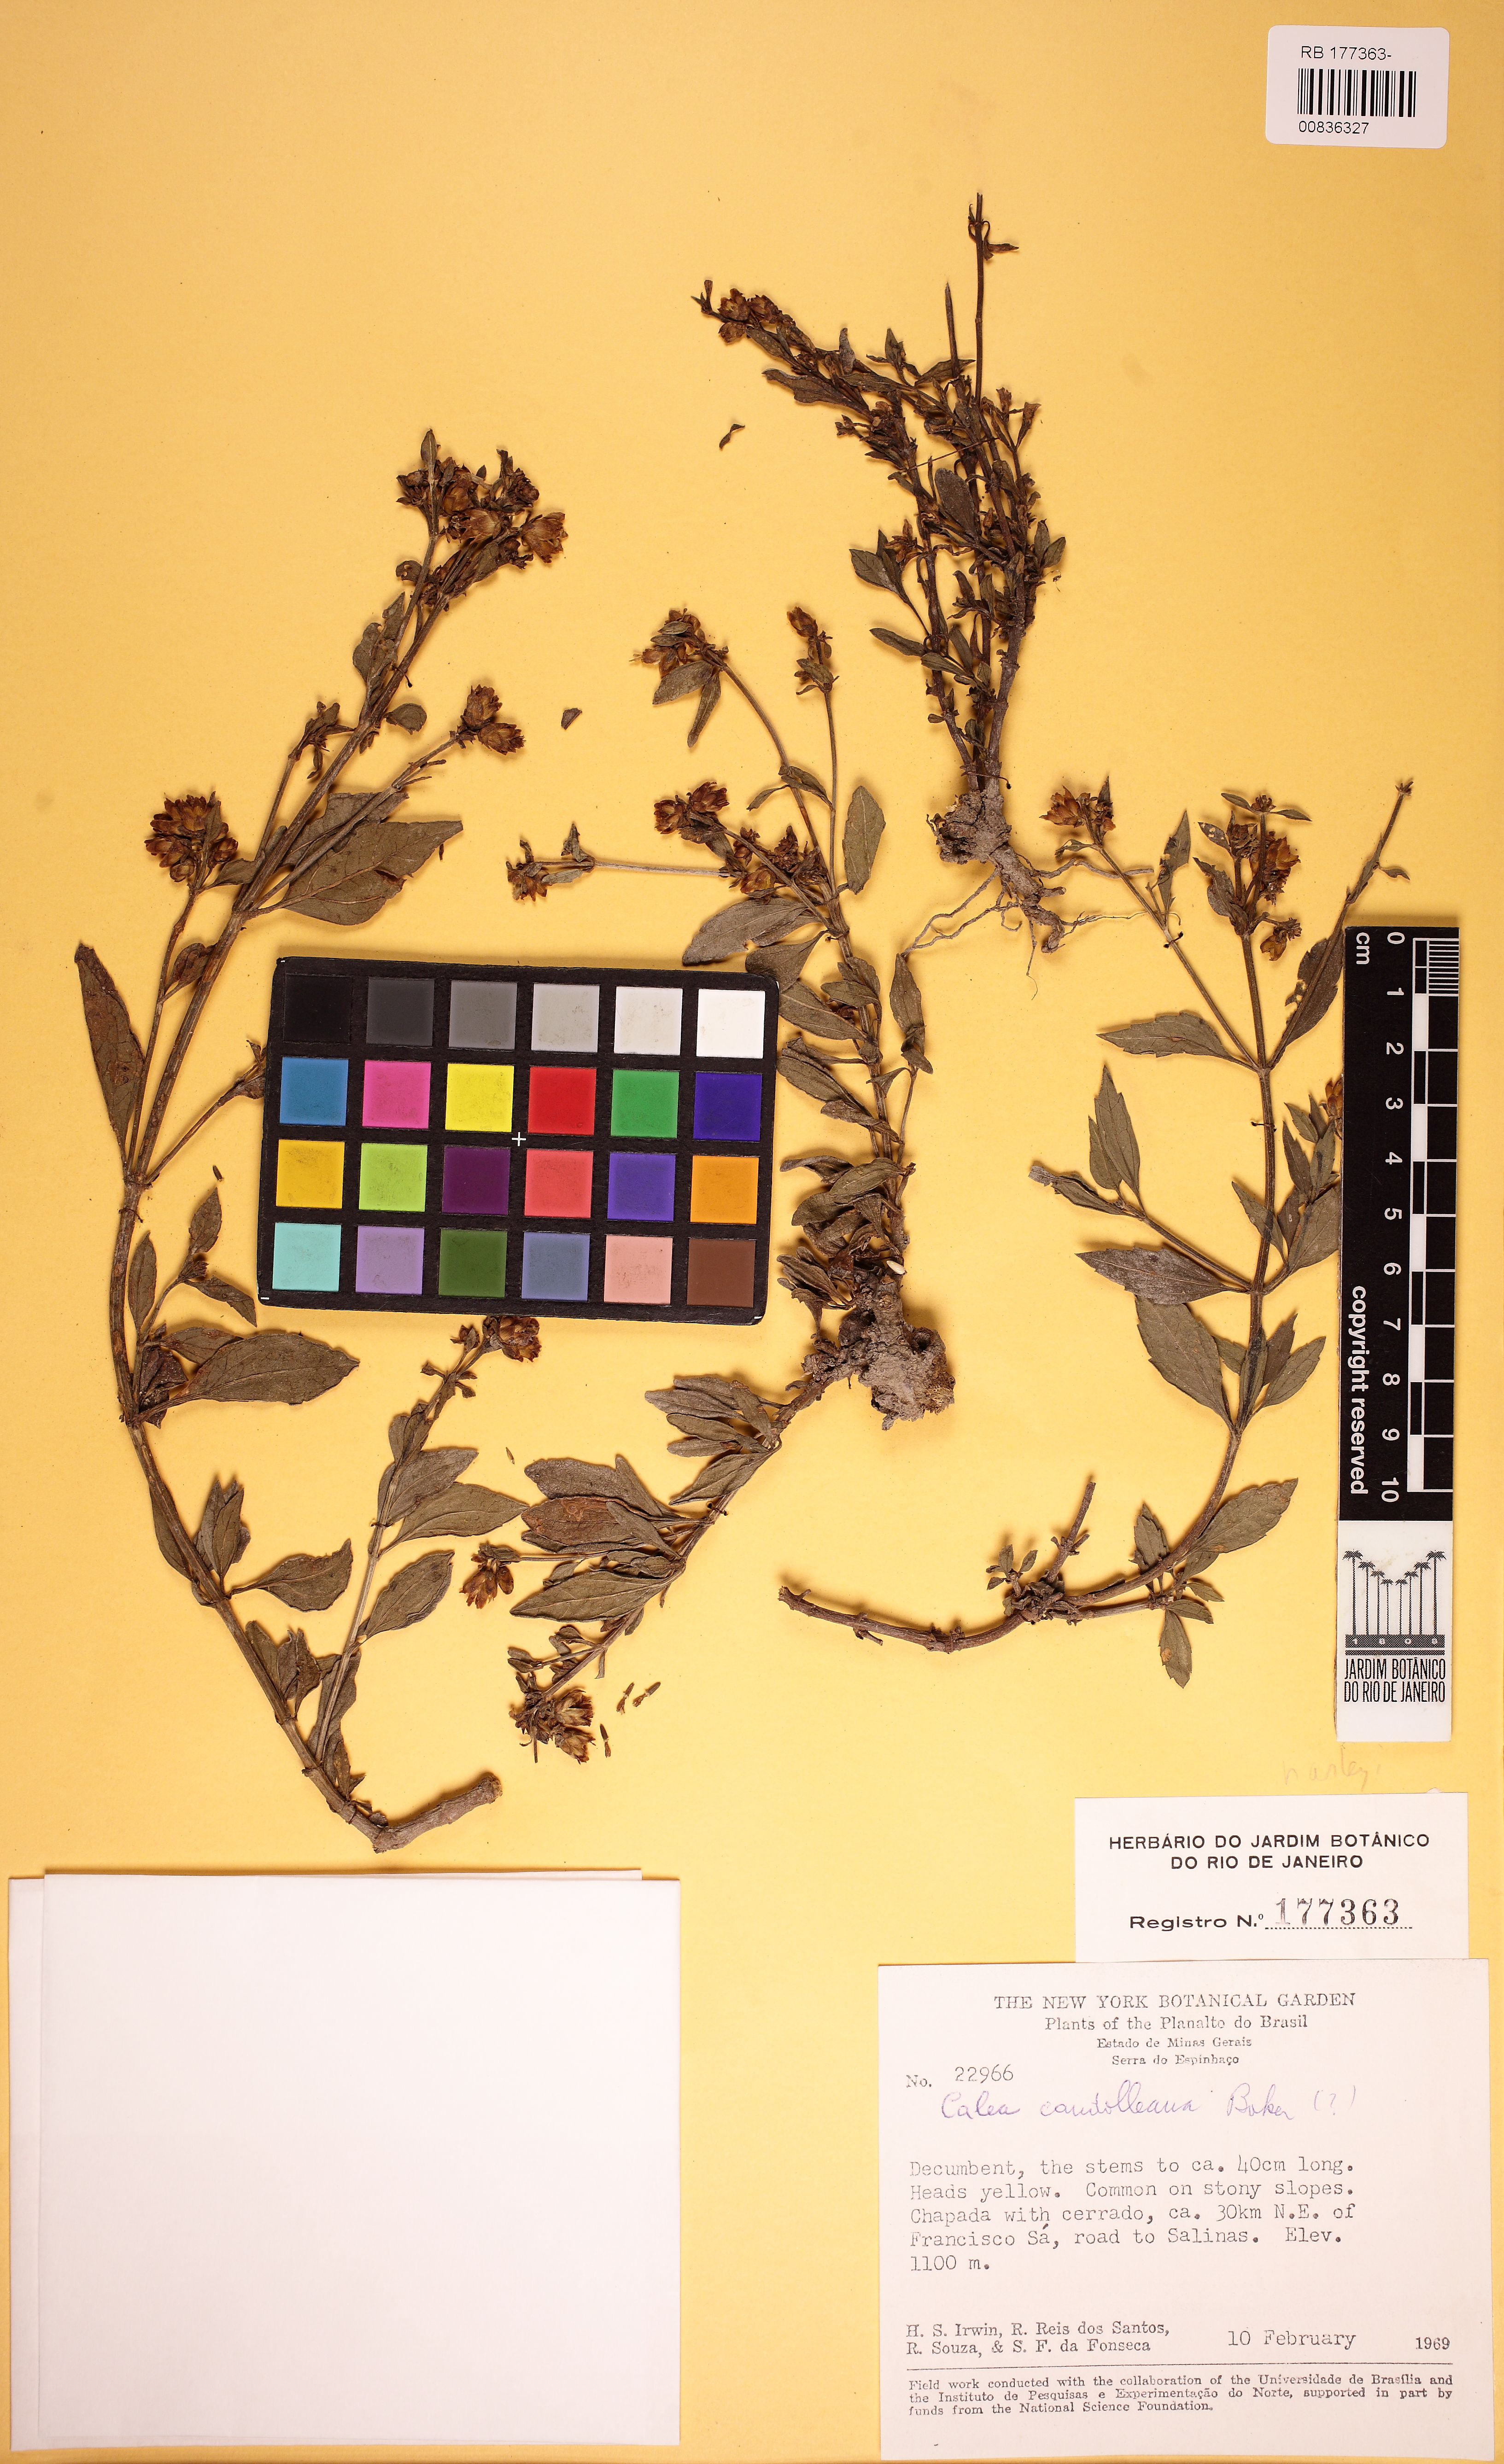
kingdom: Plantae
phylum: Tracheophyta
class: Magnoliopsida
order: Asterales
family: Asteraceae
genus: Calea
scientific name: Calea candolleana
